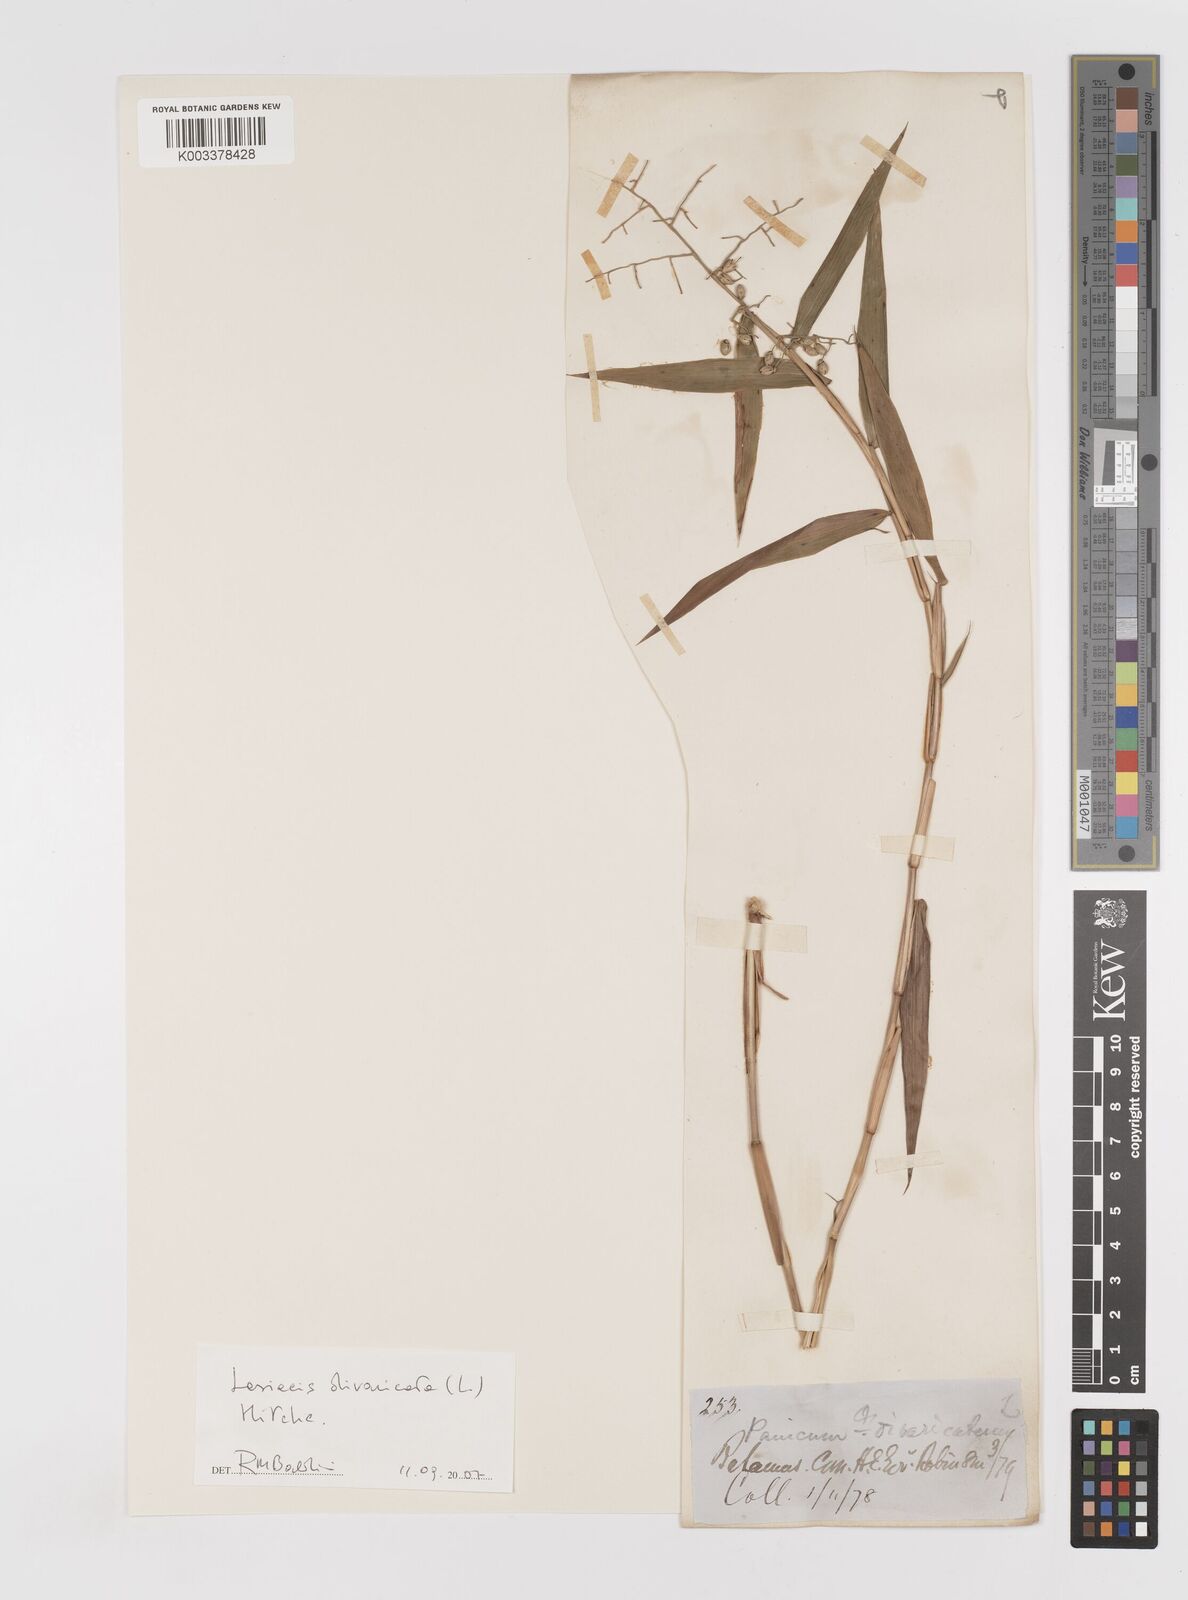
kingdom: Plantae
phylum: Tracheophyta
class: Liliopsida
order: Poales
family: Poaceae
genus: Lasiacis
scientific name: Lasiacis divaricata
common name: Smallcane
